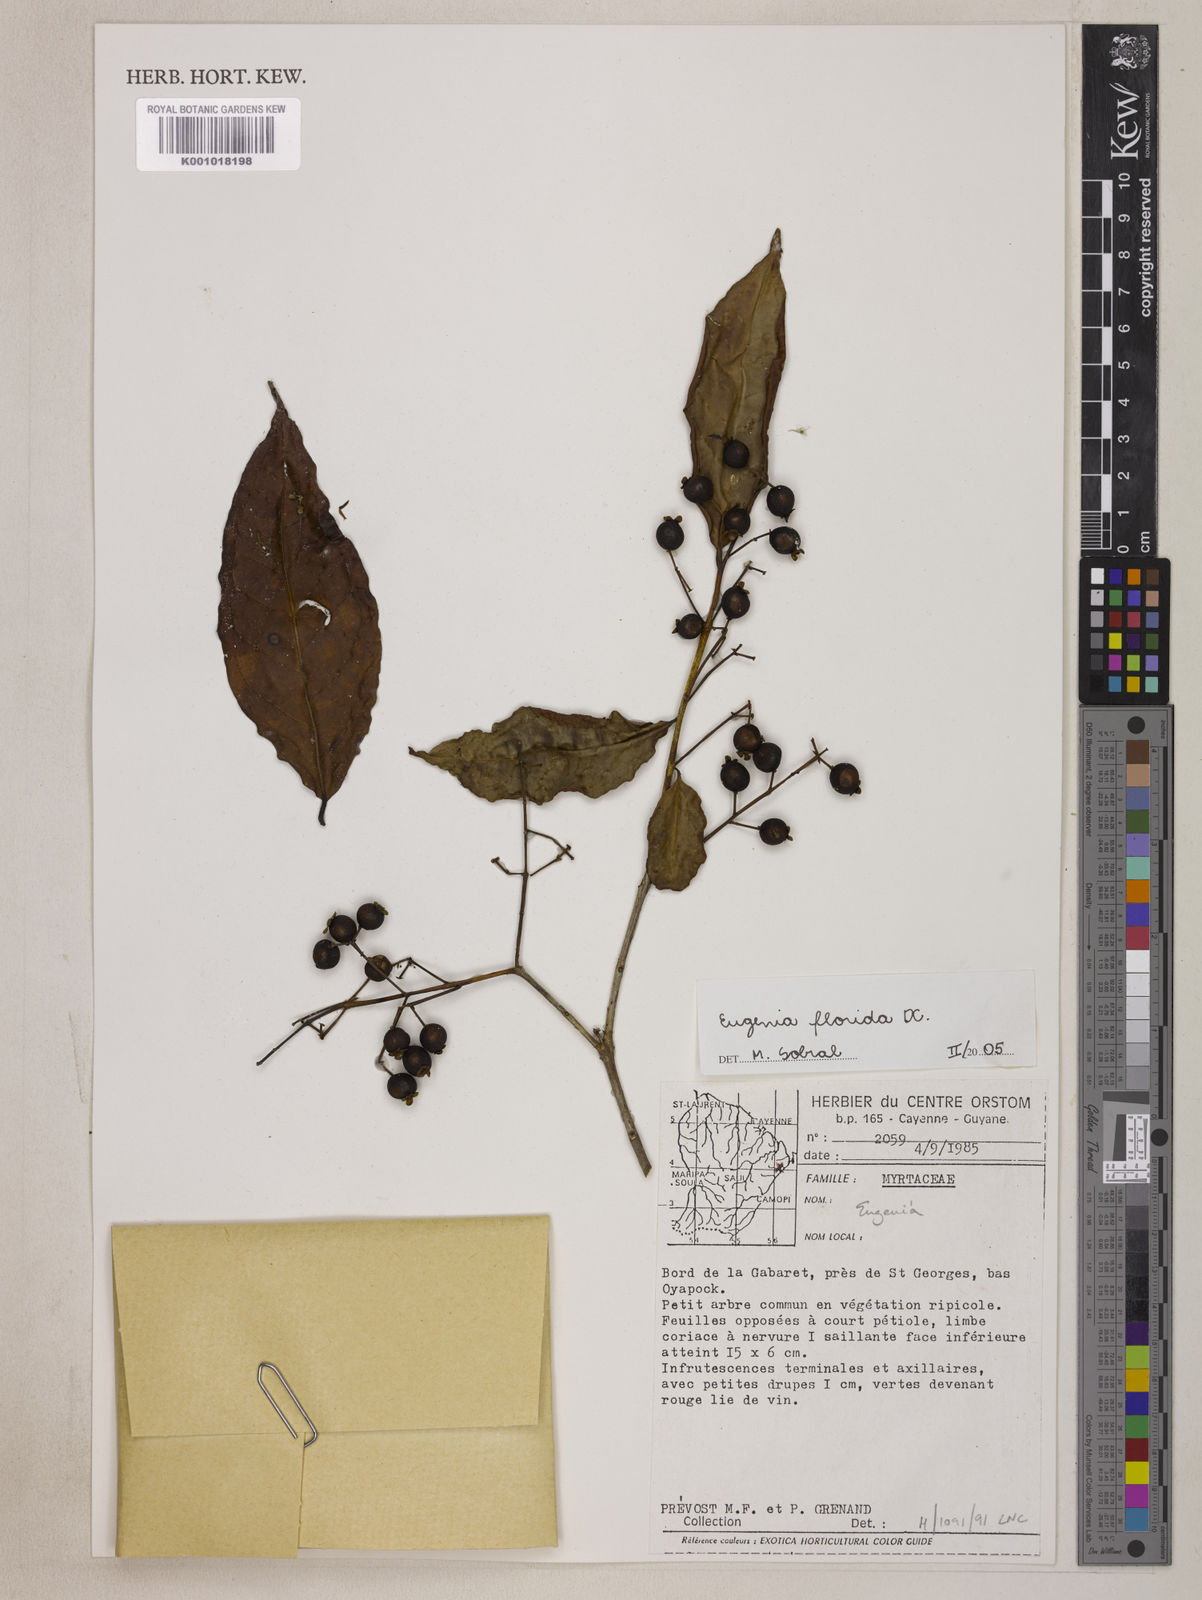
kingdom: Plantae
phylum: Tracheophyta
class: Magnoliopsida
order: Myrtales
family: Myrtaceae
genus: Eugenia
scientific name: Eugenia florida
